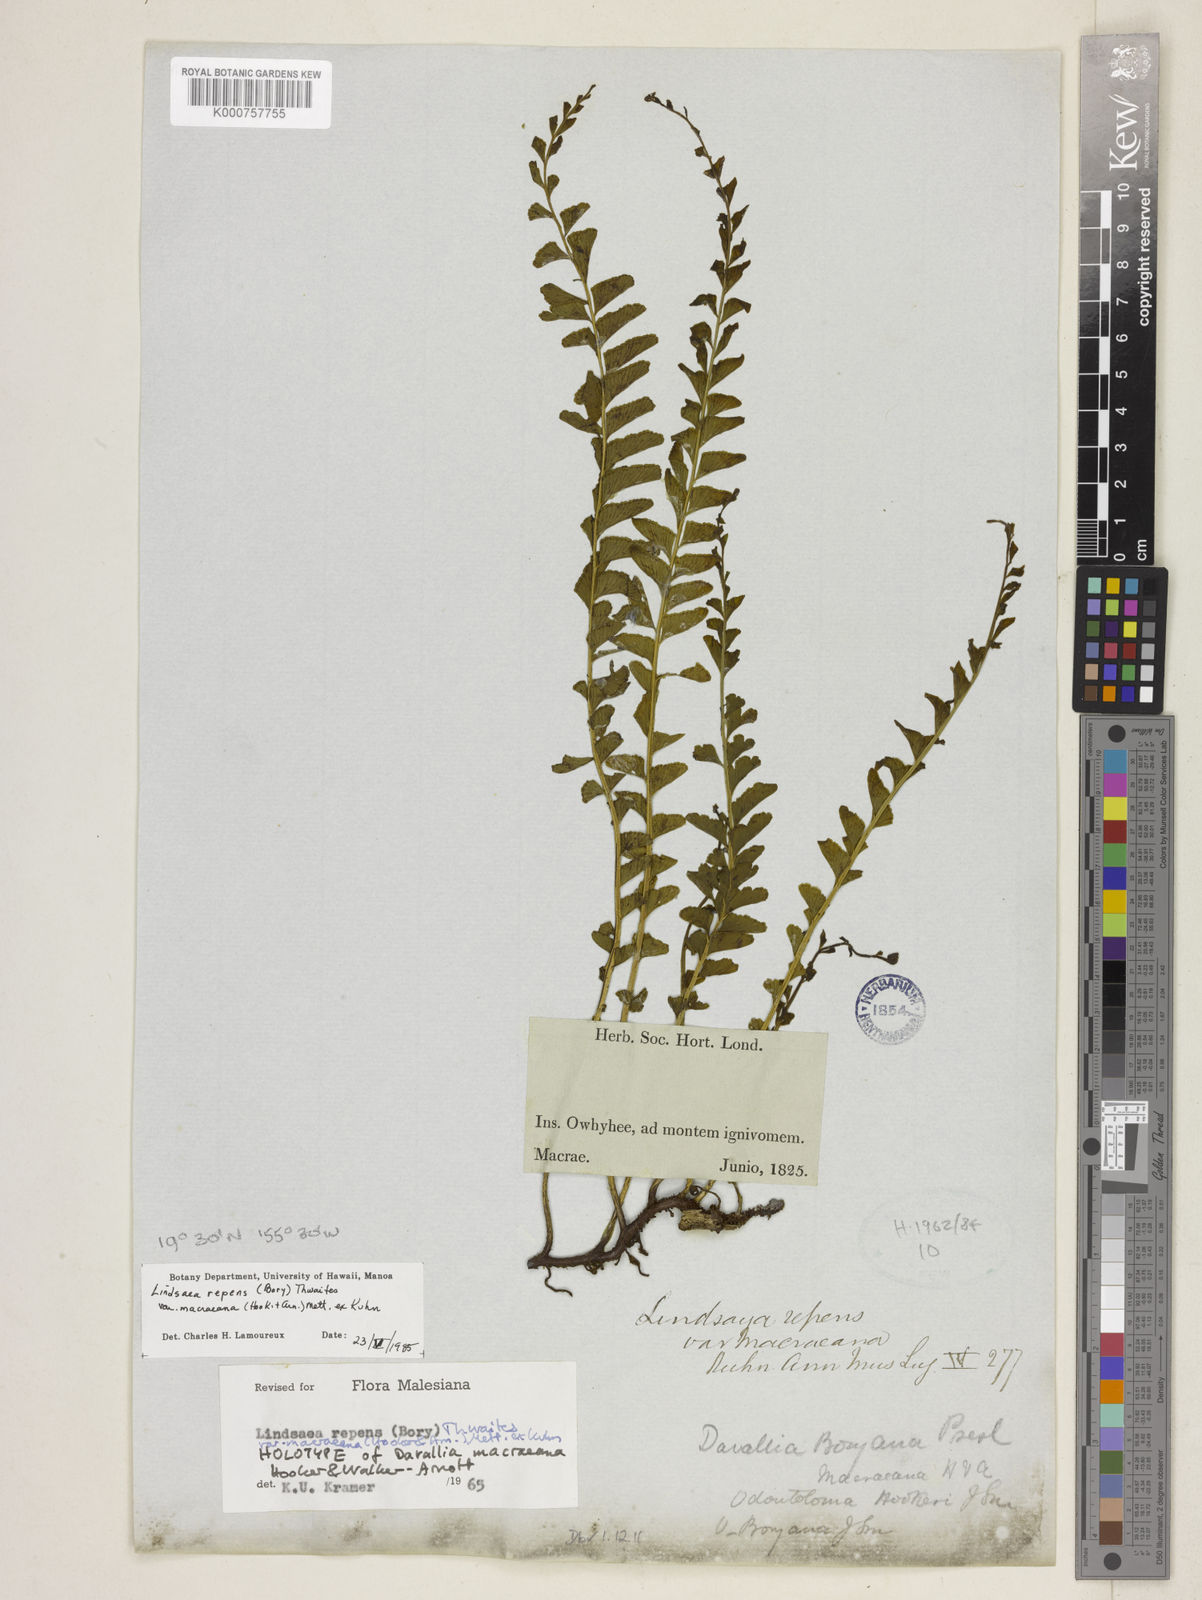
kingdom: Plantae
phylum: Tracheophyta
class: Polypodiopsida
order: Polypodiales
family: Lindsaeaceae
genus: Lindsaea
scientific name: Lindsaea capillacea
